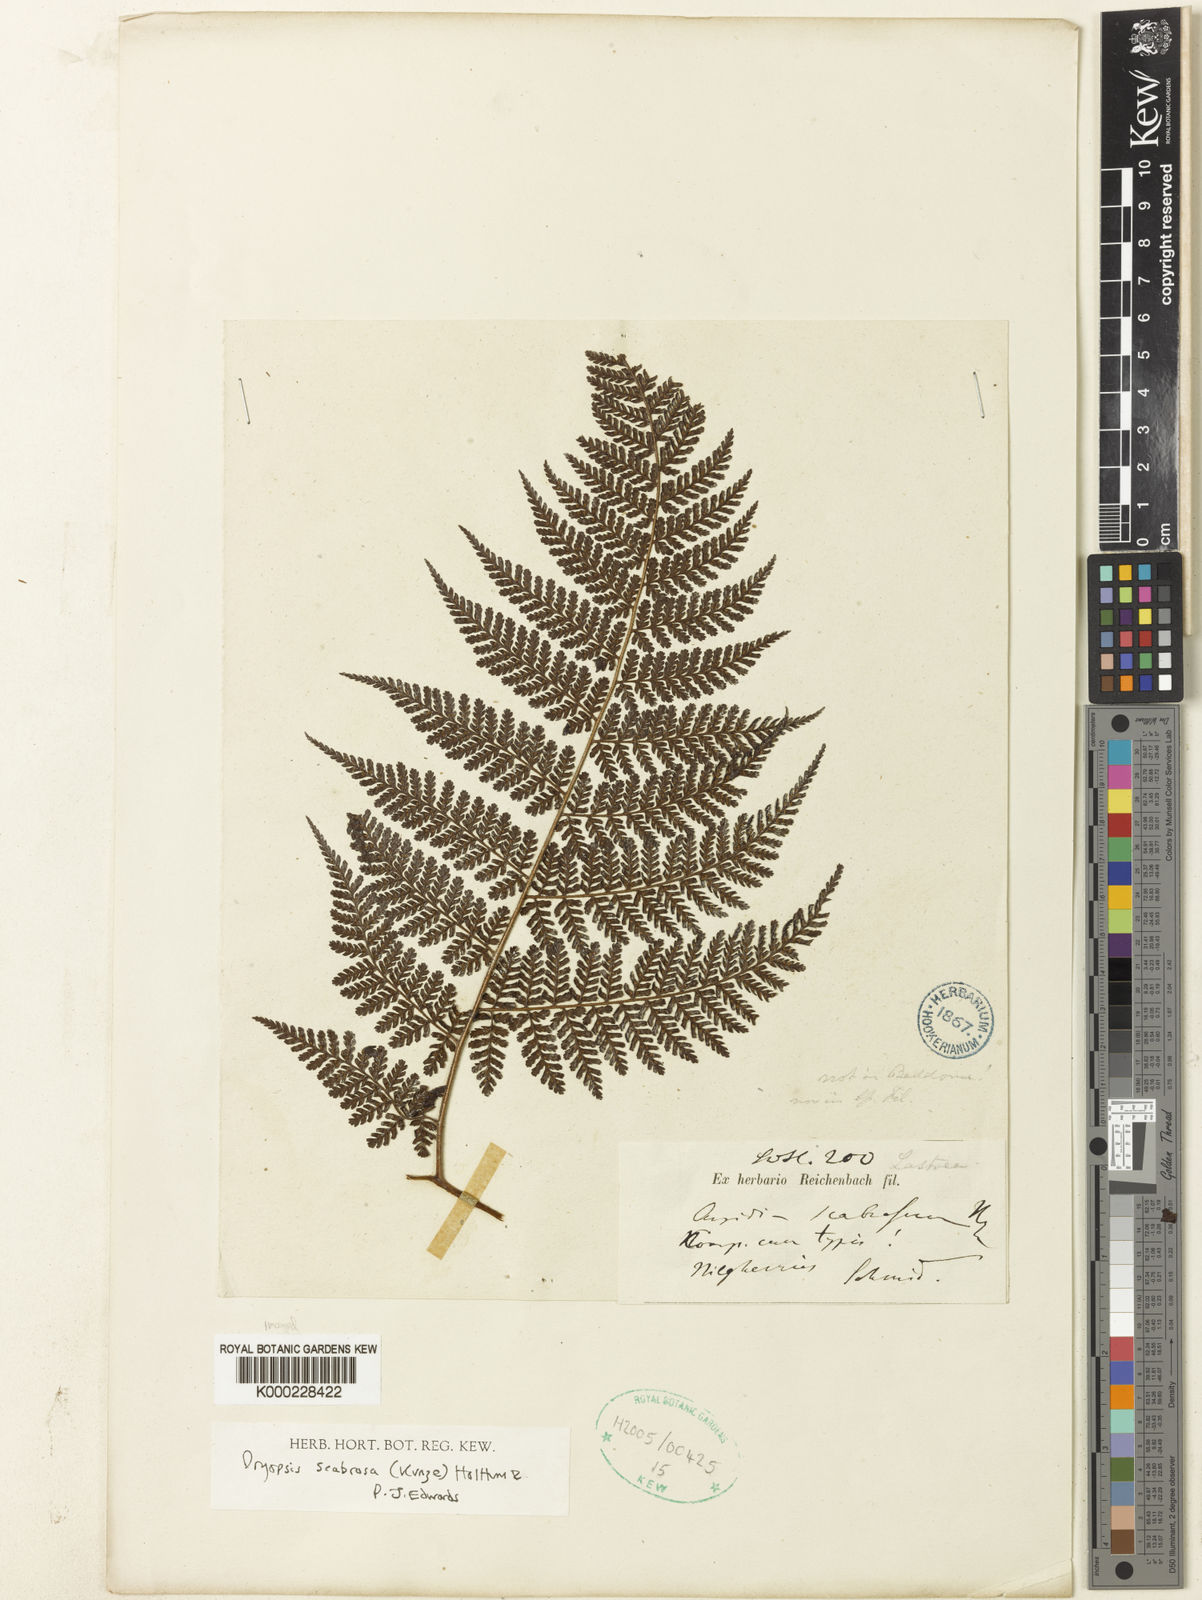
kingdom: Plantae
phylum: Tracheophyta
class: Polypodiopsida
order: Polypodiales
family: Dryopteridaceae
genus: Dryopteris
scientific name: Dryopteris scabrosa
